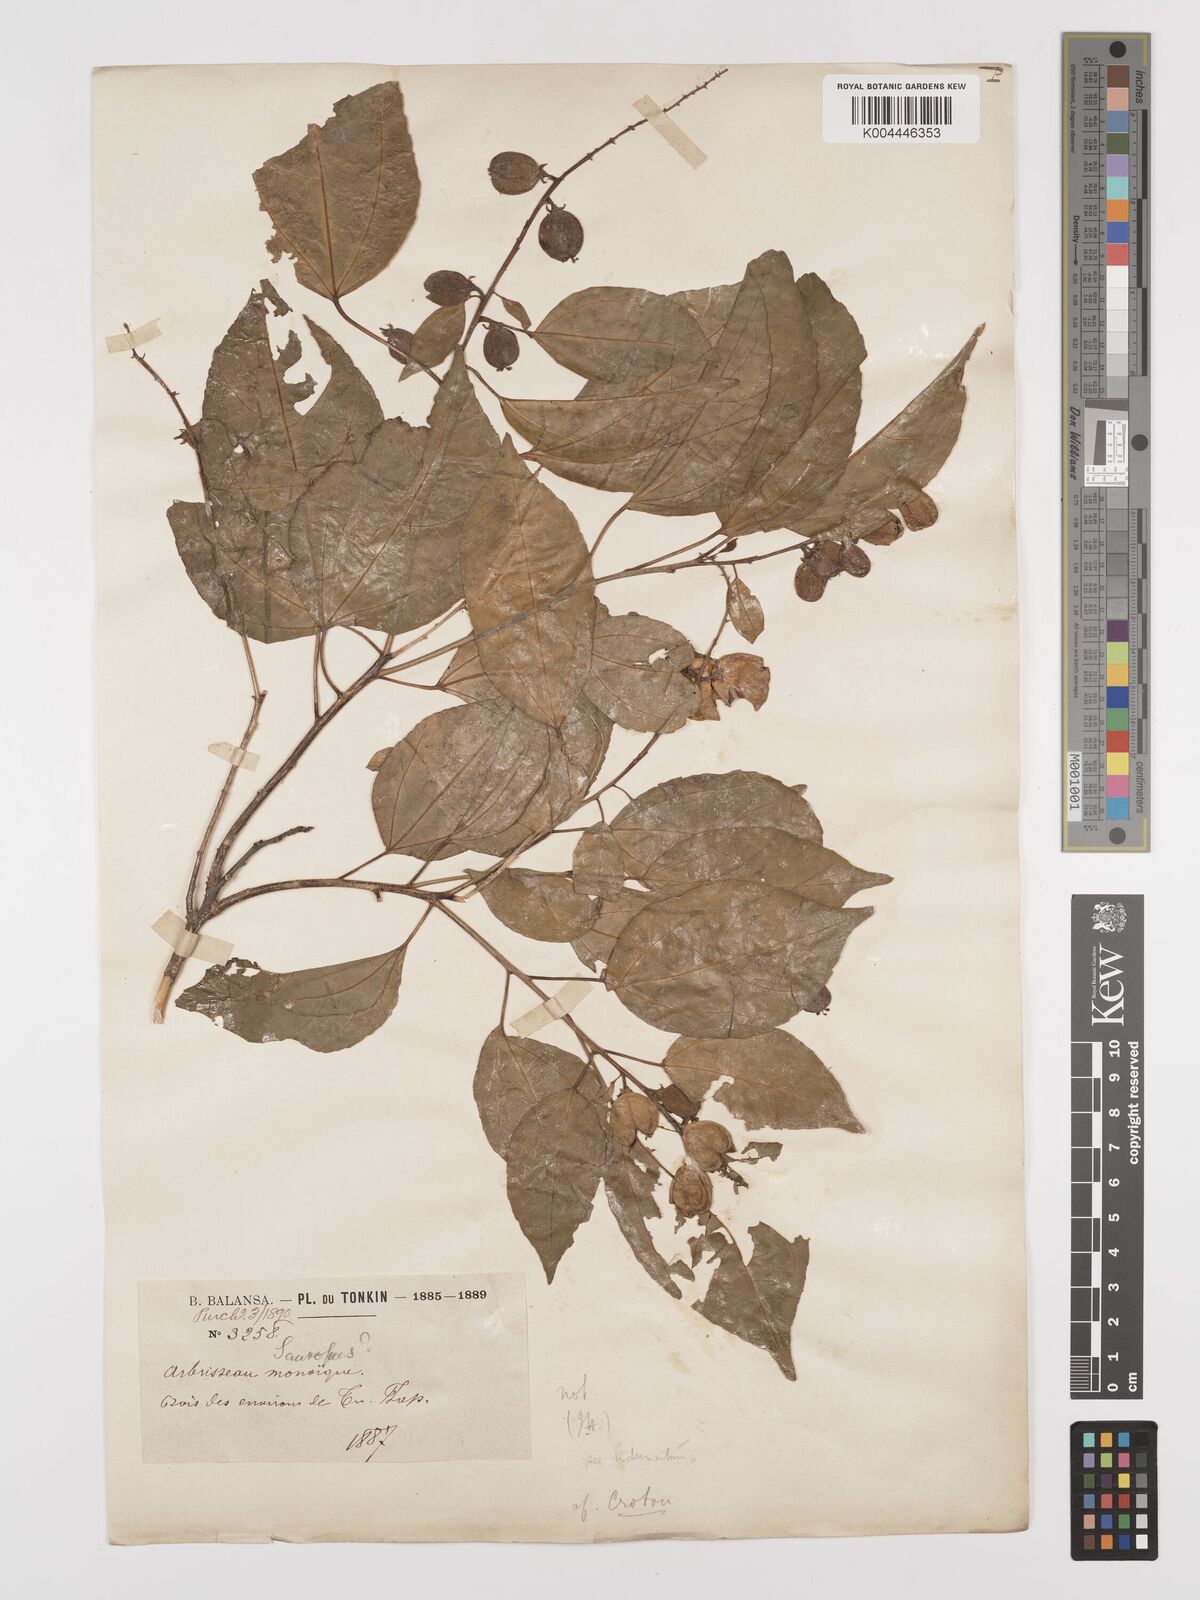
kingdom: Plantae
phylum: Tracheophyta
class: Magnoliopsida
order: Malpighiales
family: Euphorbiaceae
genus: Croton
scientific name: Croton tiglium
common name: Purging croton
